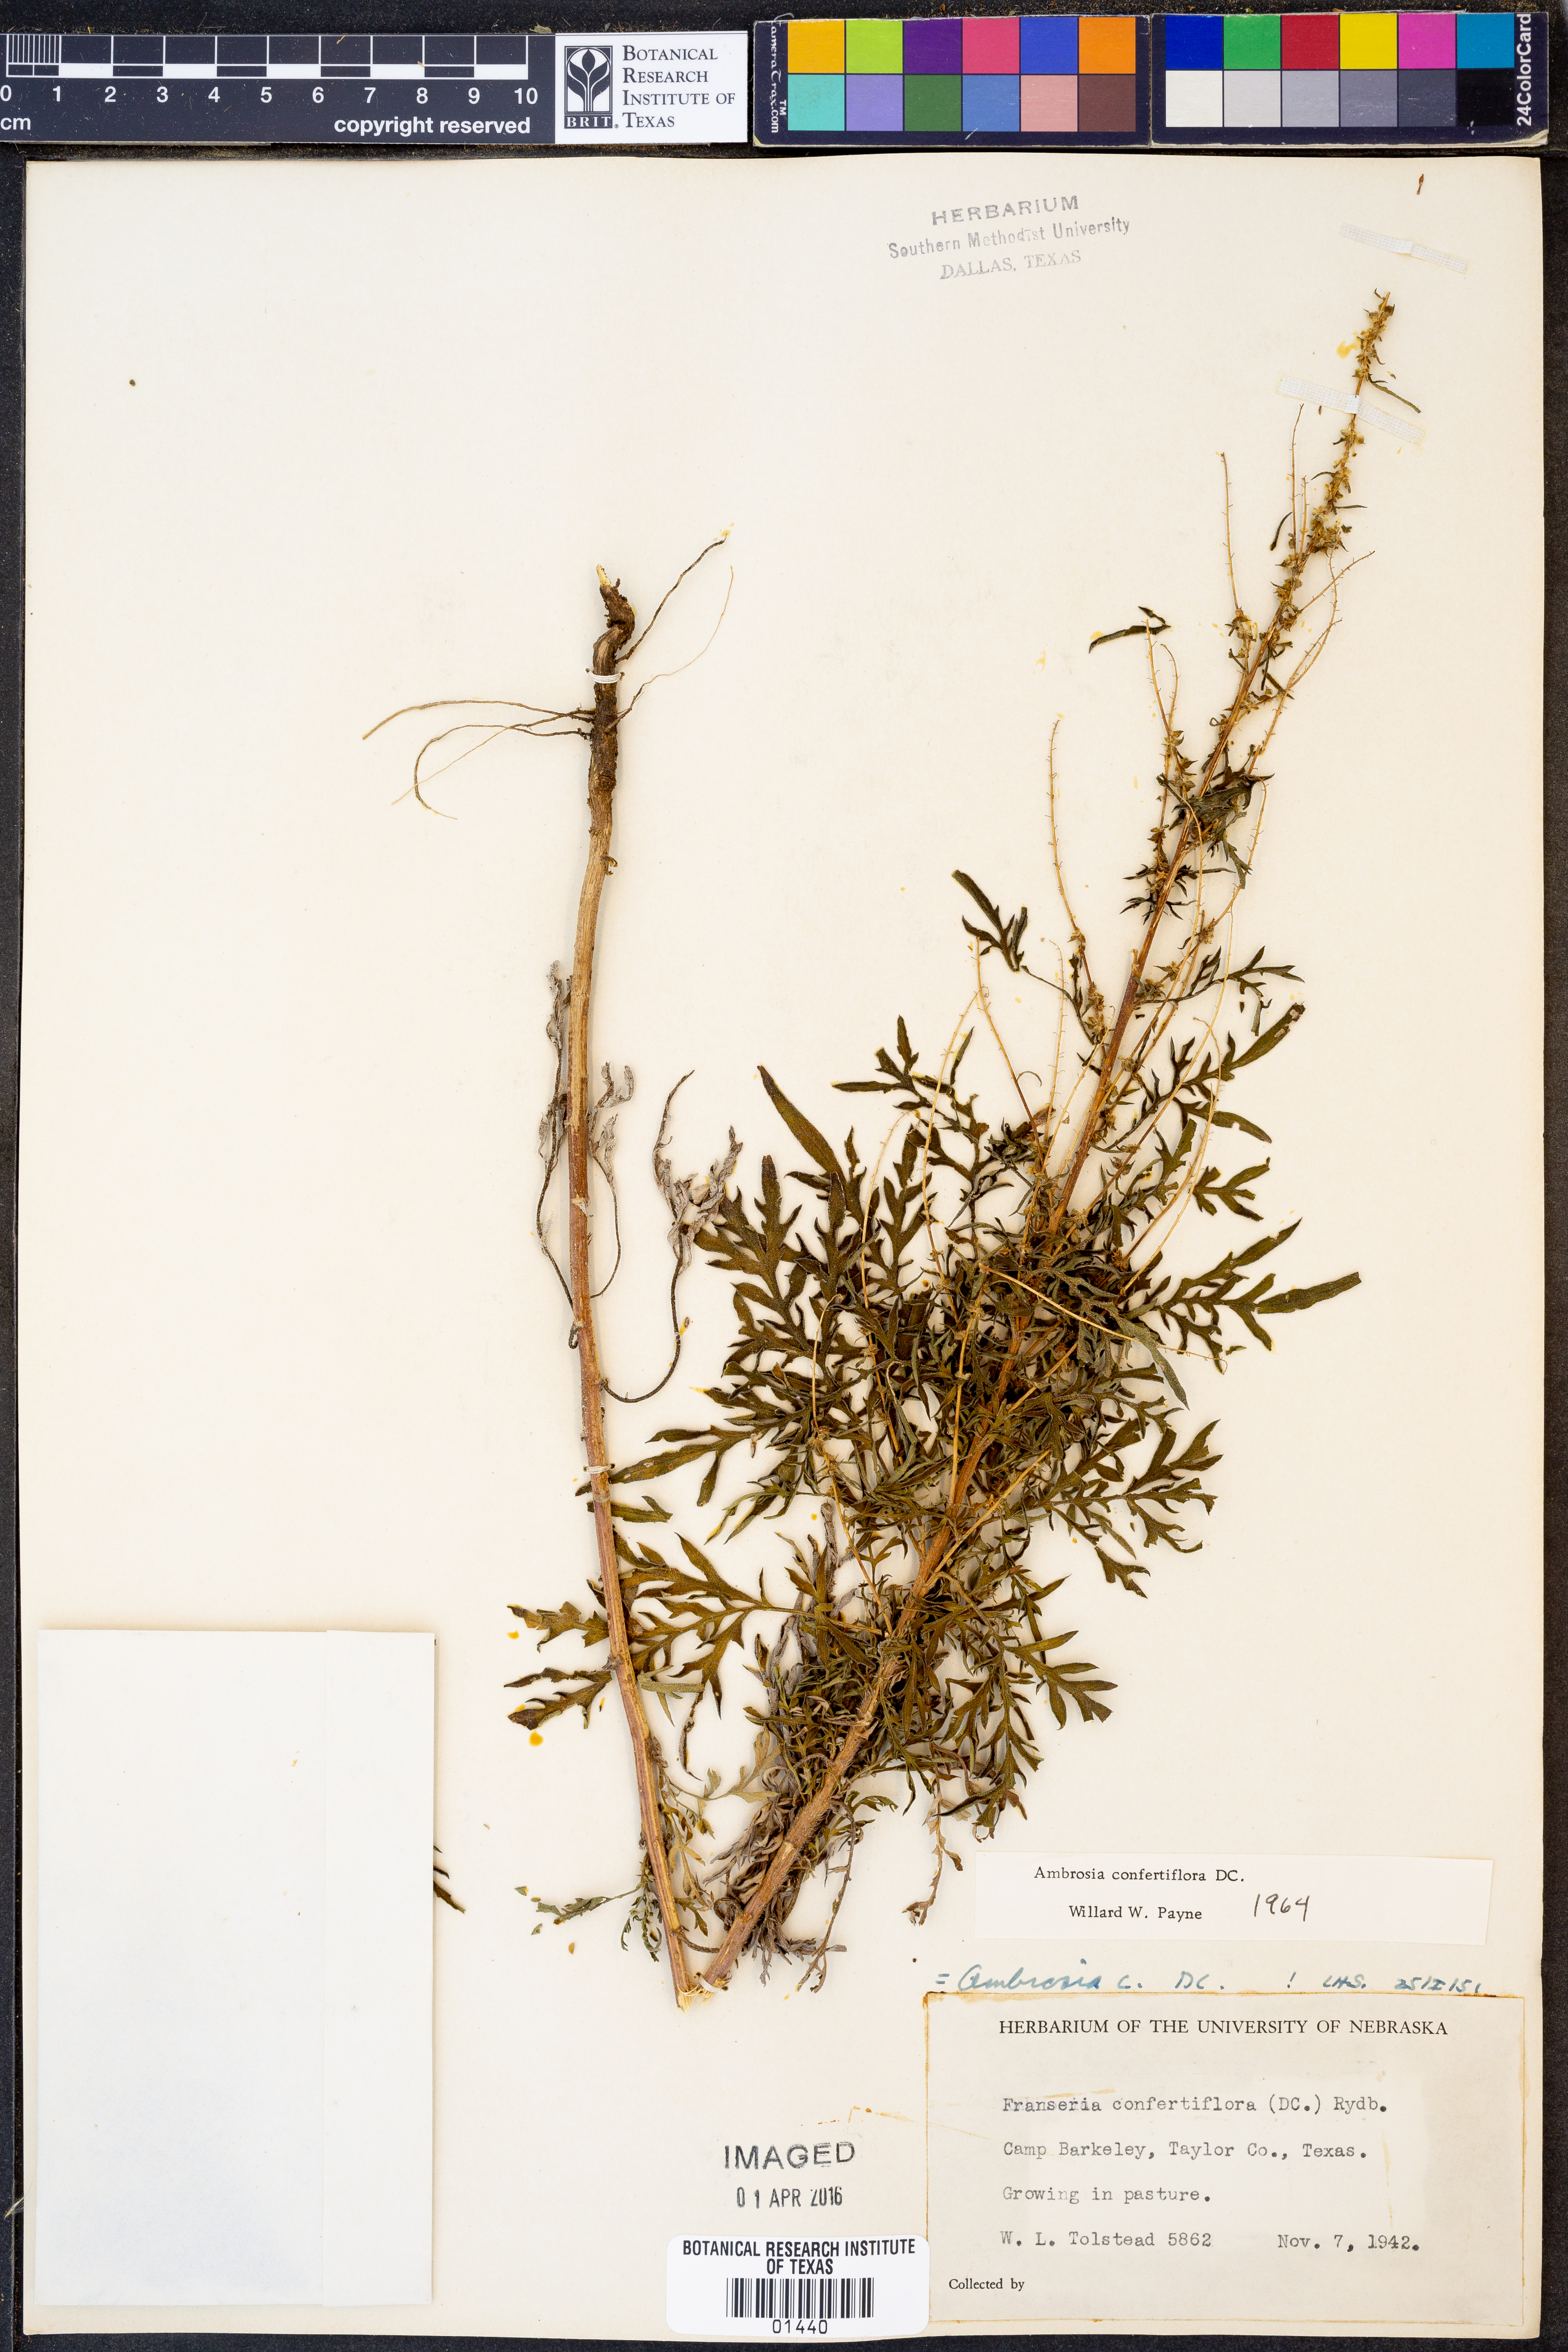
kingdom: Plantae
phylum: Tracheophyta
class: Magnoliopsida
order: Asterales
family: Asteraceae
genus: Ambrosia
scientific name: Ambrosia confertiflora
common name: Bur ragweed
